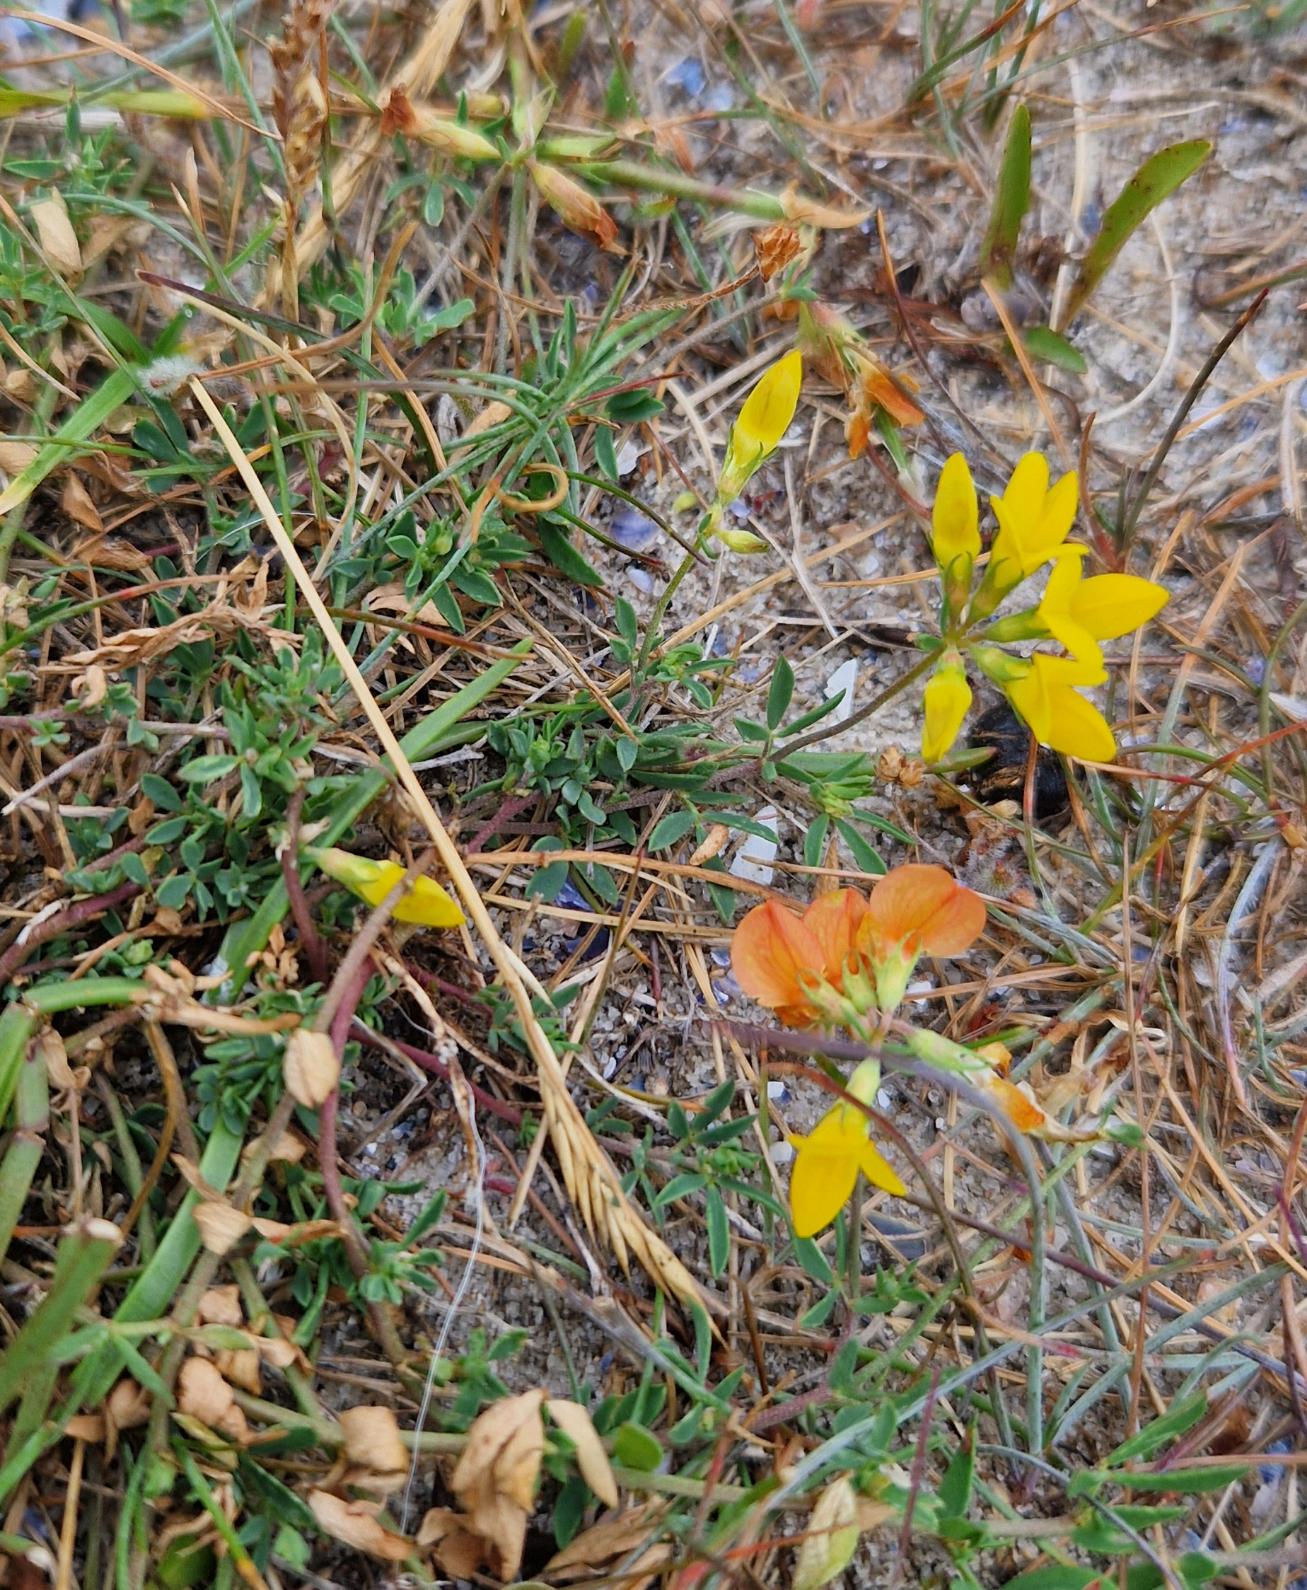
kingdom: Plantae
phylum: Tracheophyta
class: Magnoliopsida
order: Fabales
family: Fabaceae
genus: Lotus
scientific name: Lotus corniculatus
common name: Almindelig kællingetand
